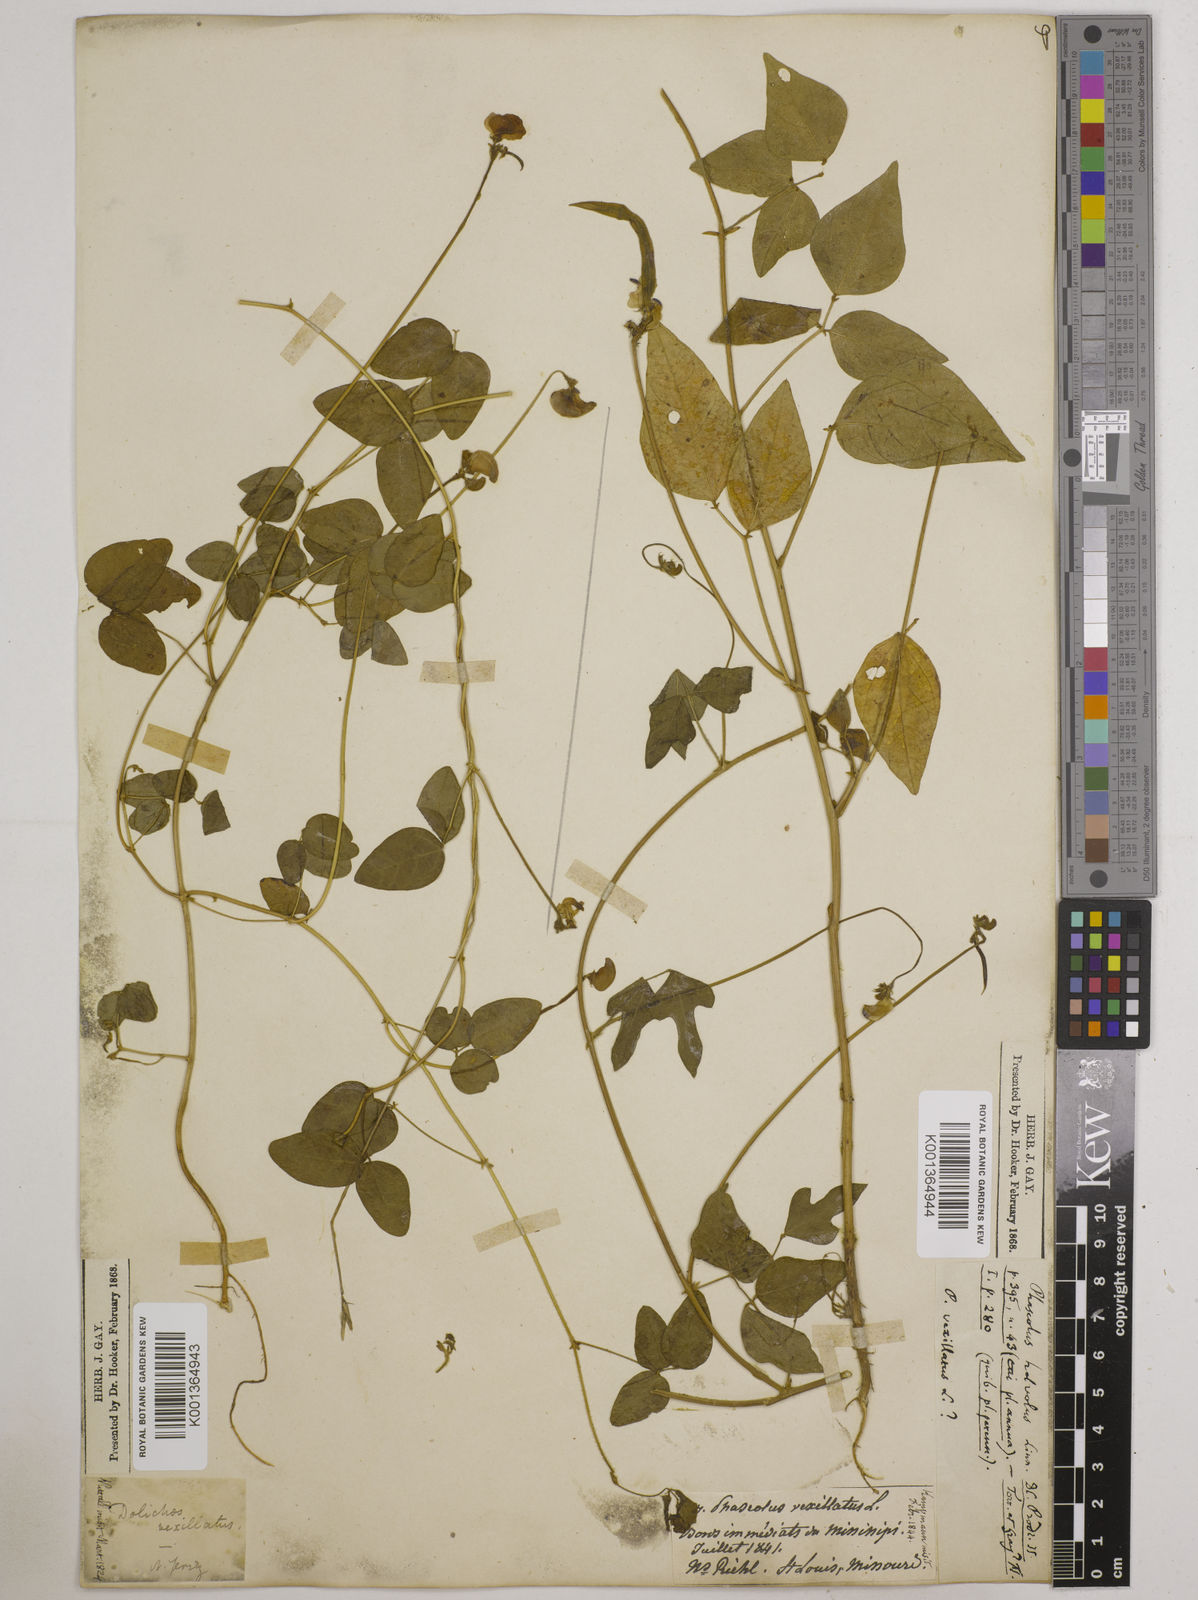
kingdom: Plantae
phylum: Tracheophyta
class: Magnoliopsida
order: Fabales
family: Fabaceae
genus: Strophostyles
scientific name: Strophostyles
